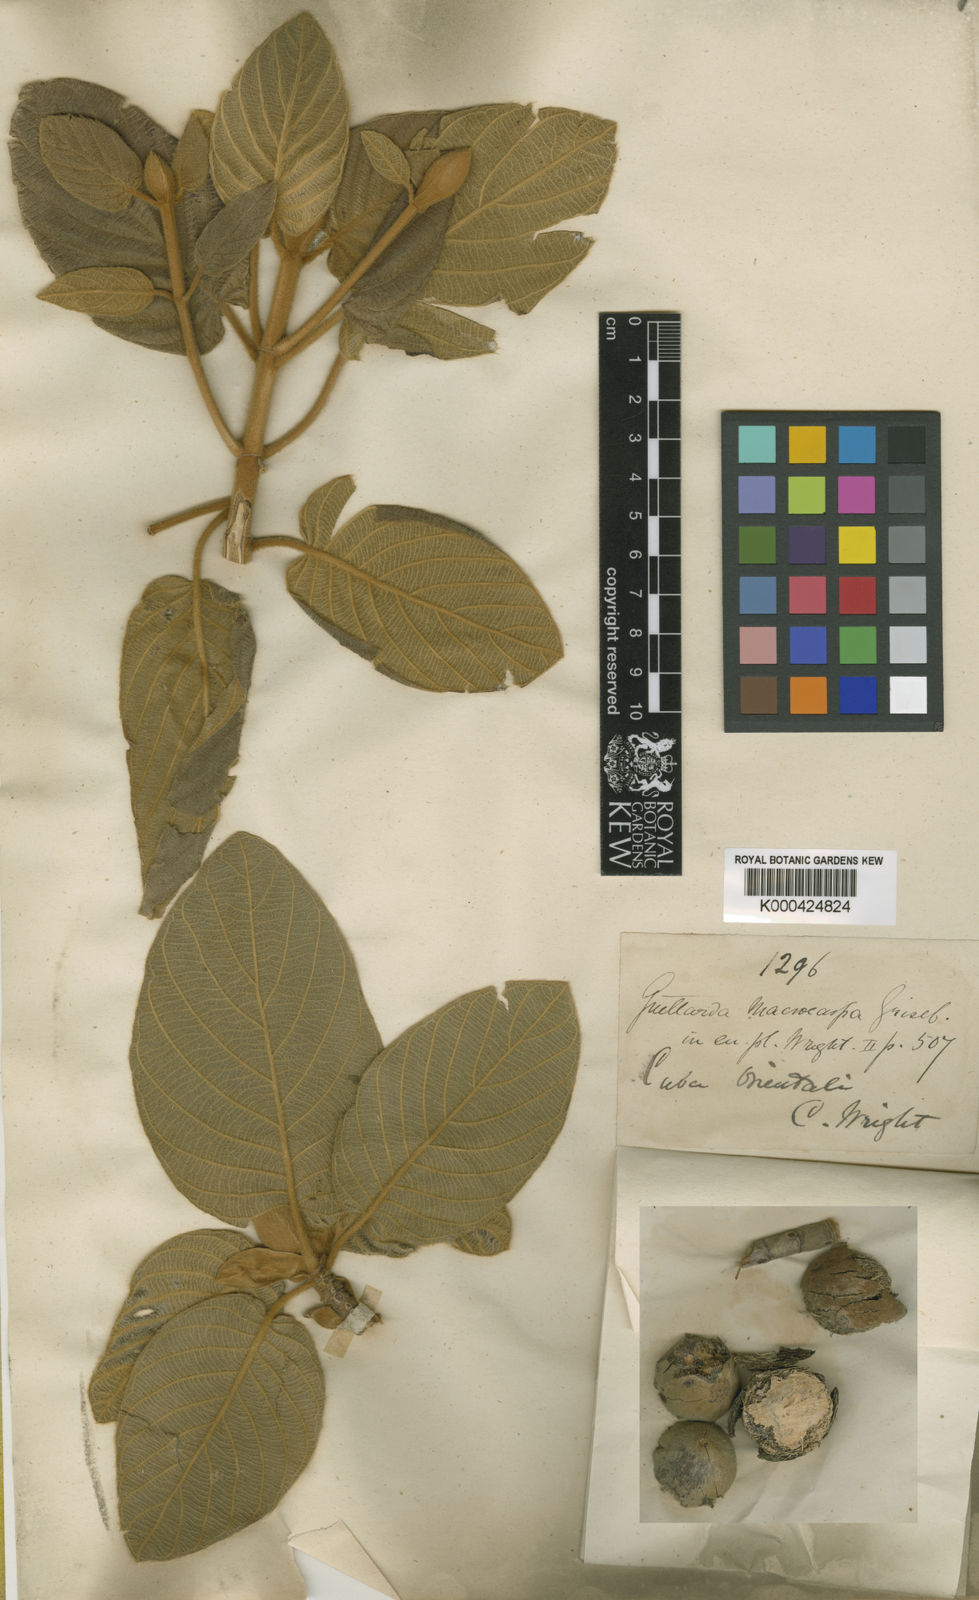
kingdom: Plantae
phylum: Tracheophyta
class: Magnoliopsida
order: Gentianales
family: Rubiaceae
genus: Guettarda
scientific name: Guettarda macrocarpa
